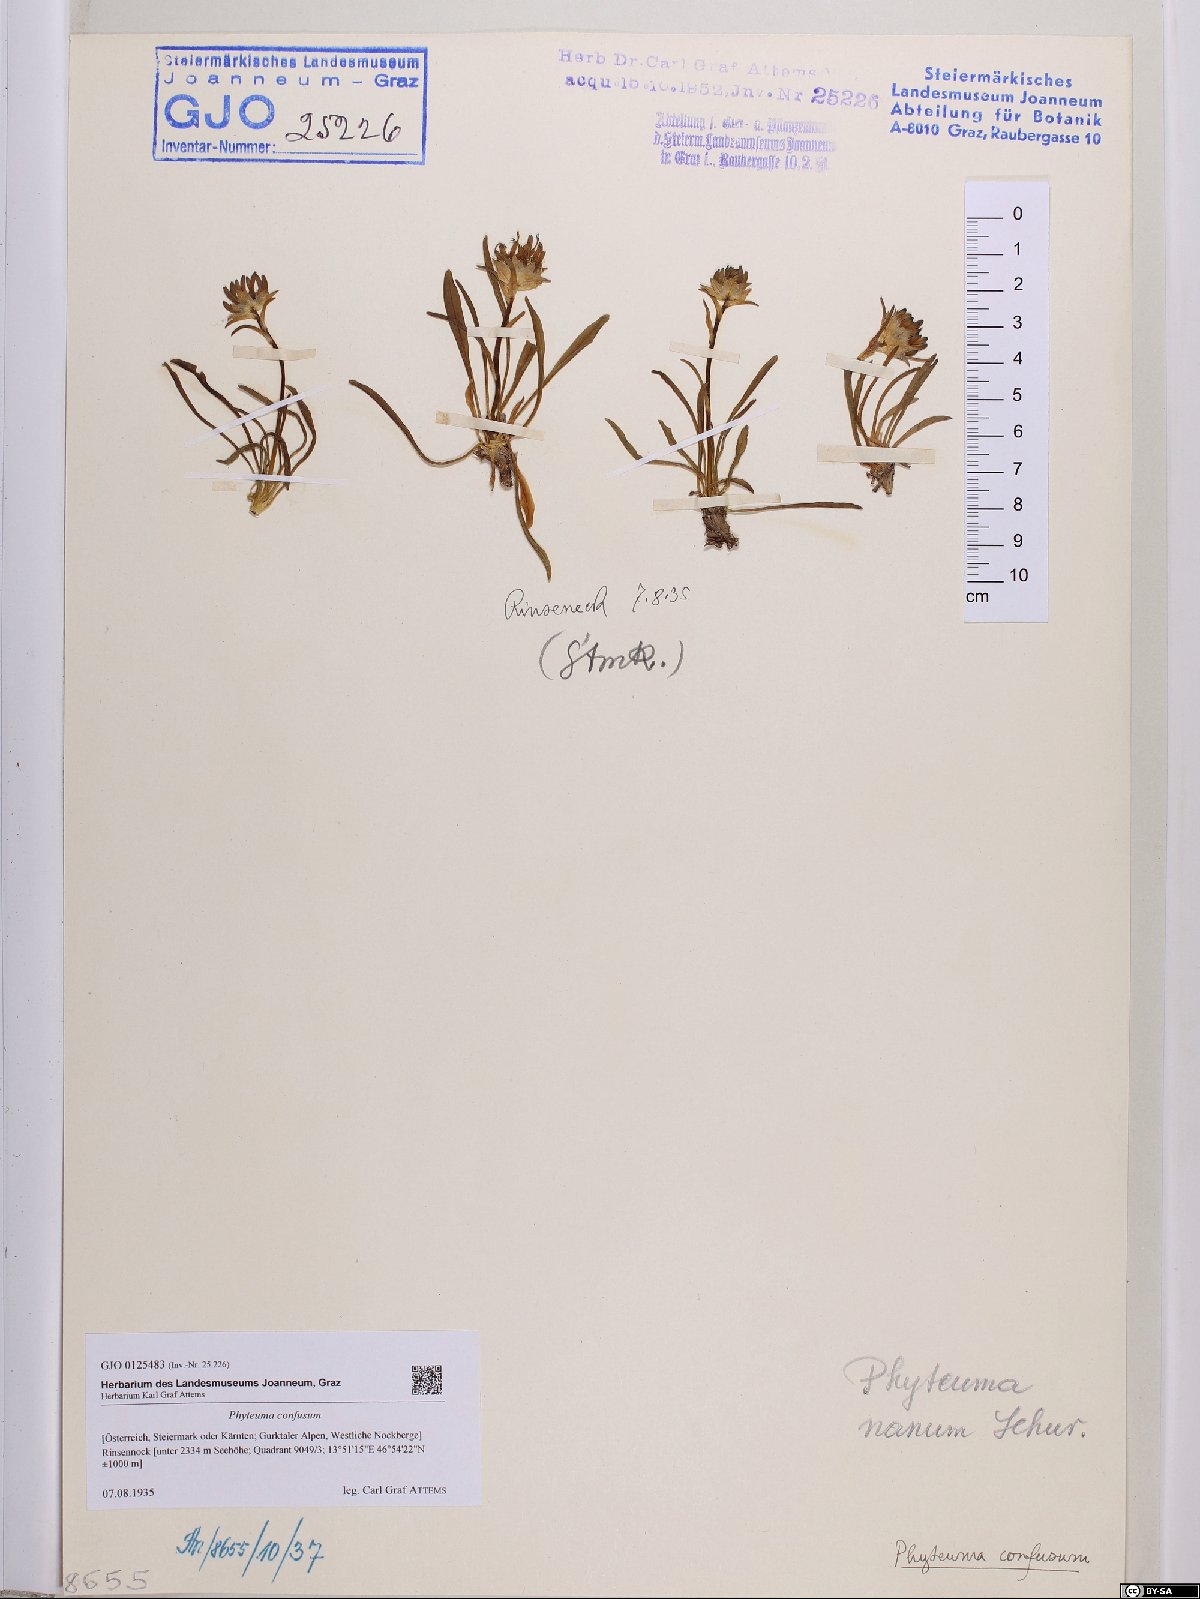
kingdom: Plantae
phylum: Tracheophyta
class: Magnoliopsida
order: Asterales
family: Campanulaceae
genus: Phyteuma
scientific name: Phyteuma confusum
